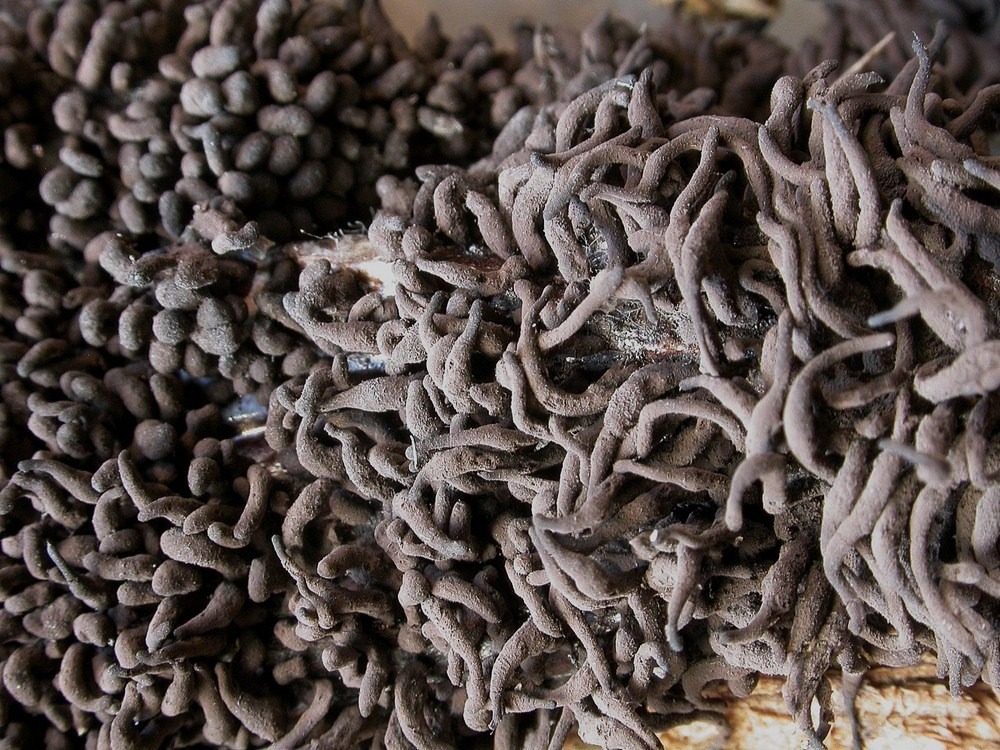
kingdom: Protozoa
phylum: Mycetozoa
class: Myxomycetes
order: Stemonitidales
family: Stemonitidaceae
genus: Symphytocarpus
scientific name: Symphytocarpus amaurochaetoides
